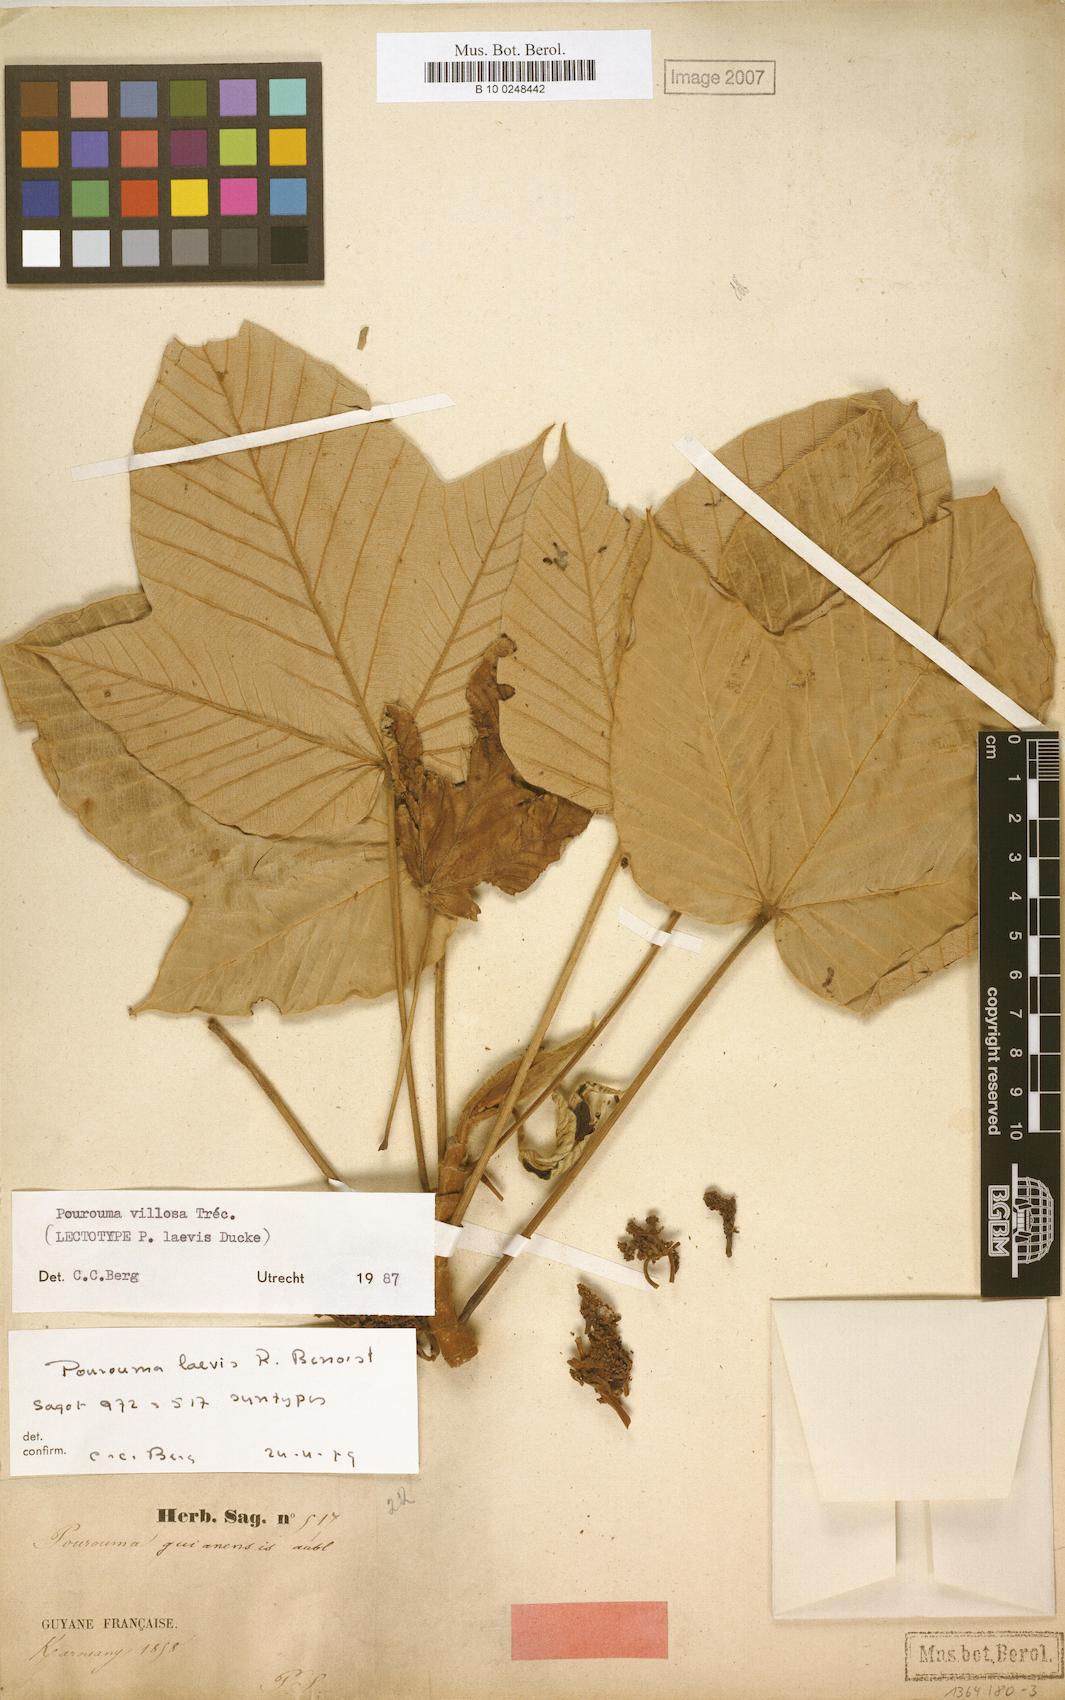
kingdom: Plantae
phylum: Tracheophyta
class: Magnoliopsida
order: Rosales
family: Urticaceae
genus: Pourouma
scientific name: Pourouma villosa
